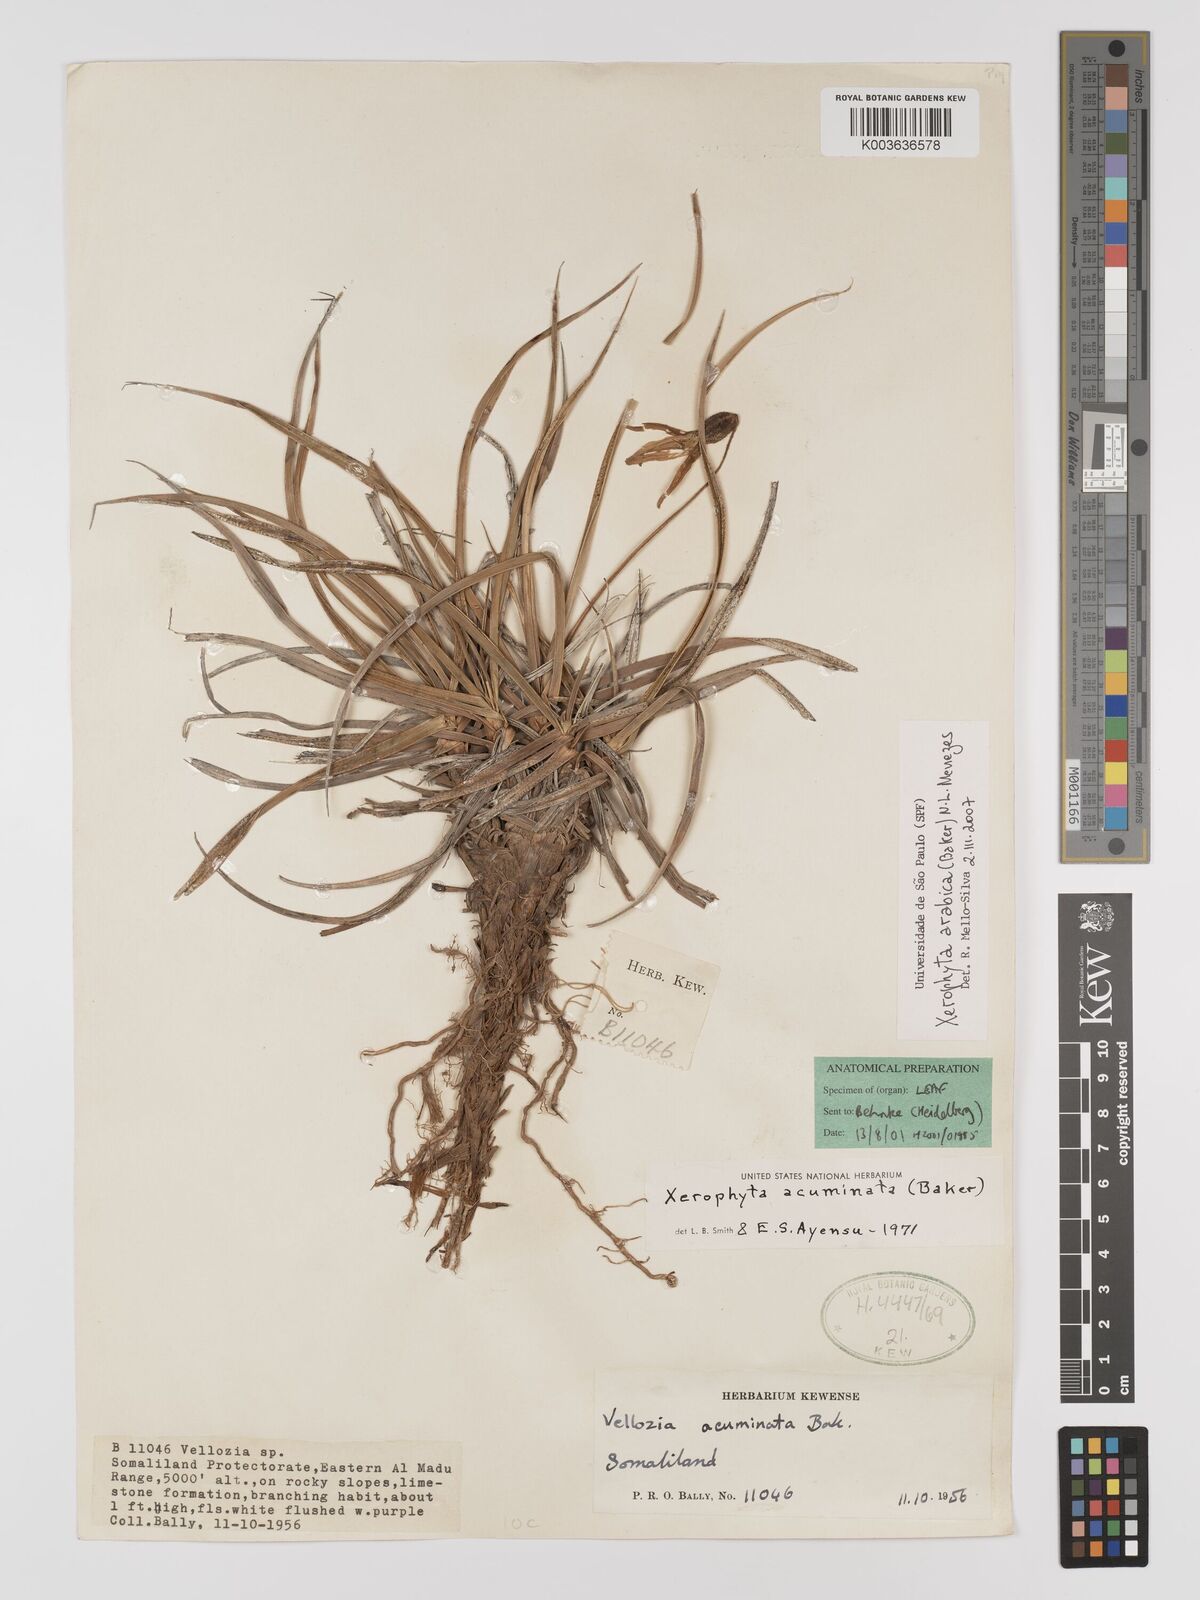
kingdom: Plantae
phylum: Tracheophyta
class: Liliopsida
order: Pandanales
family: Velloziaceae
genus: Xerophyta
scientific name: Xerophyta arabica
